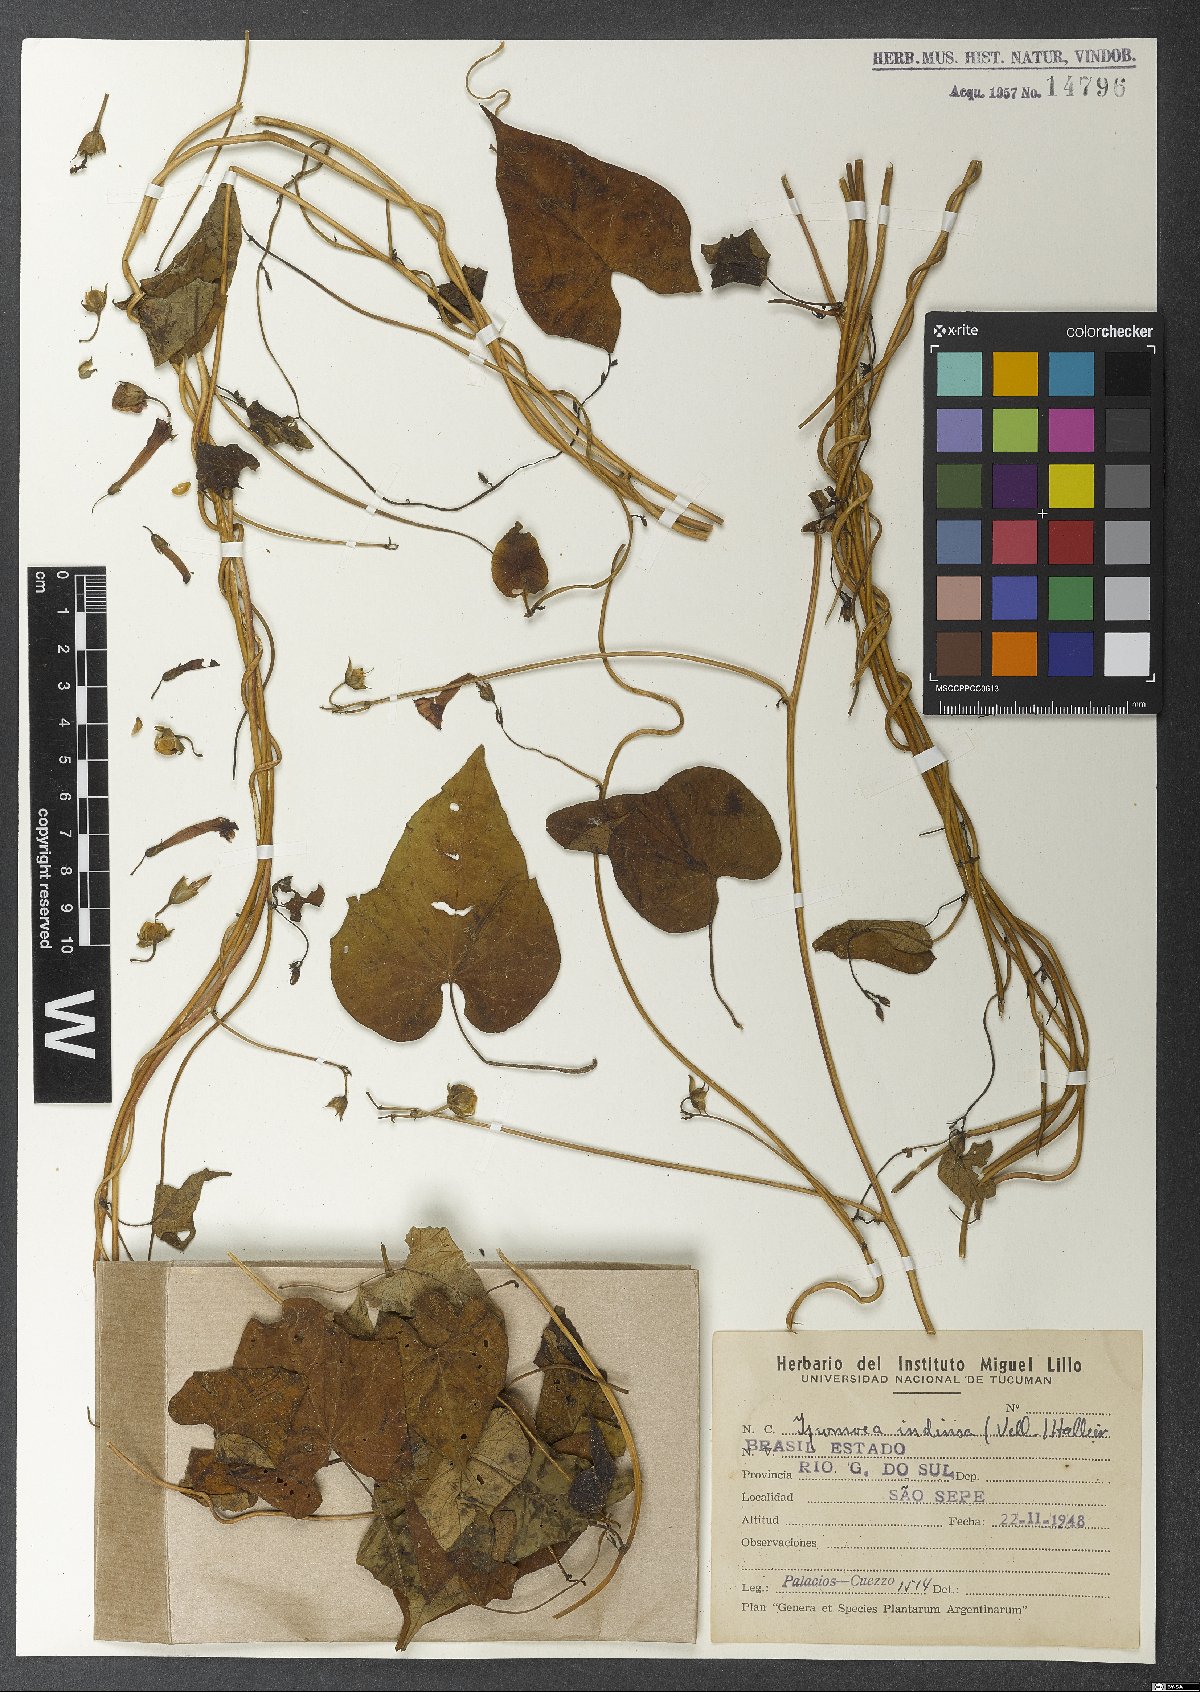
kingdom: Plantae
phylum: Tracheophyta
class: Magnoliopsida
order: Solanales
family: Convolvulaceae
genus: Ipomoea
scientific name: Ipomoea indivisa
